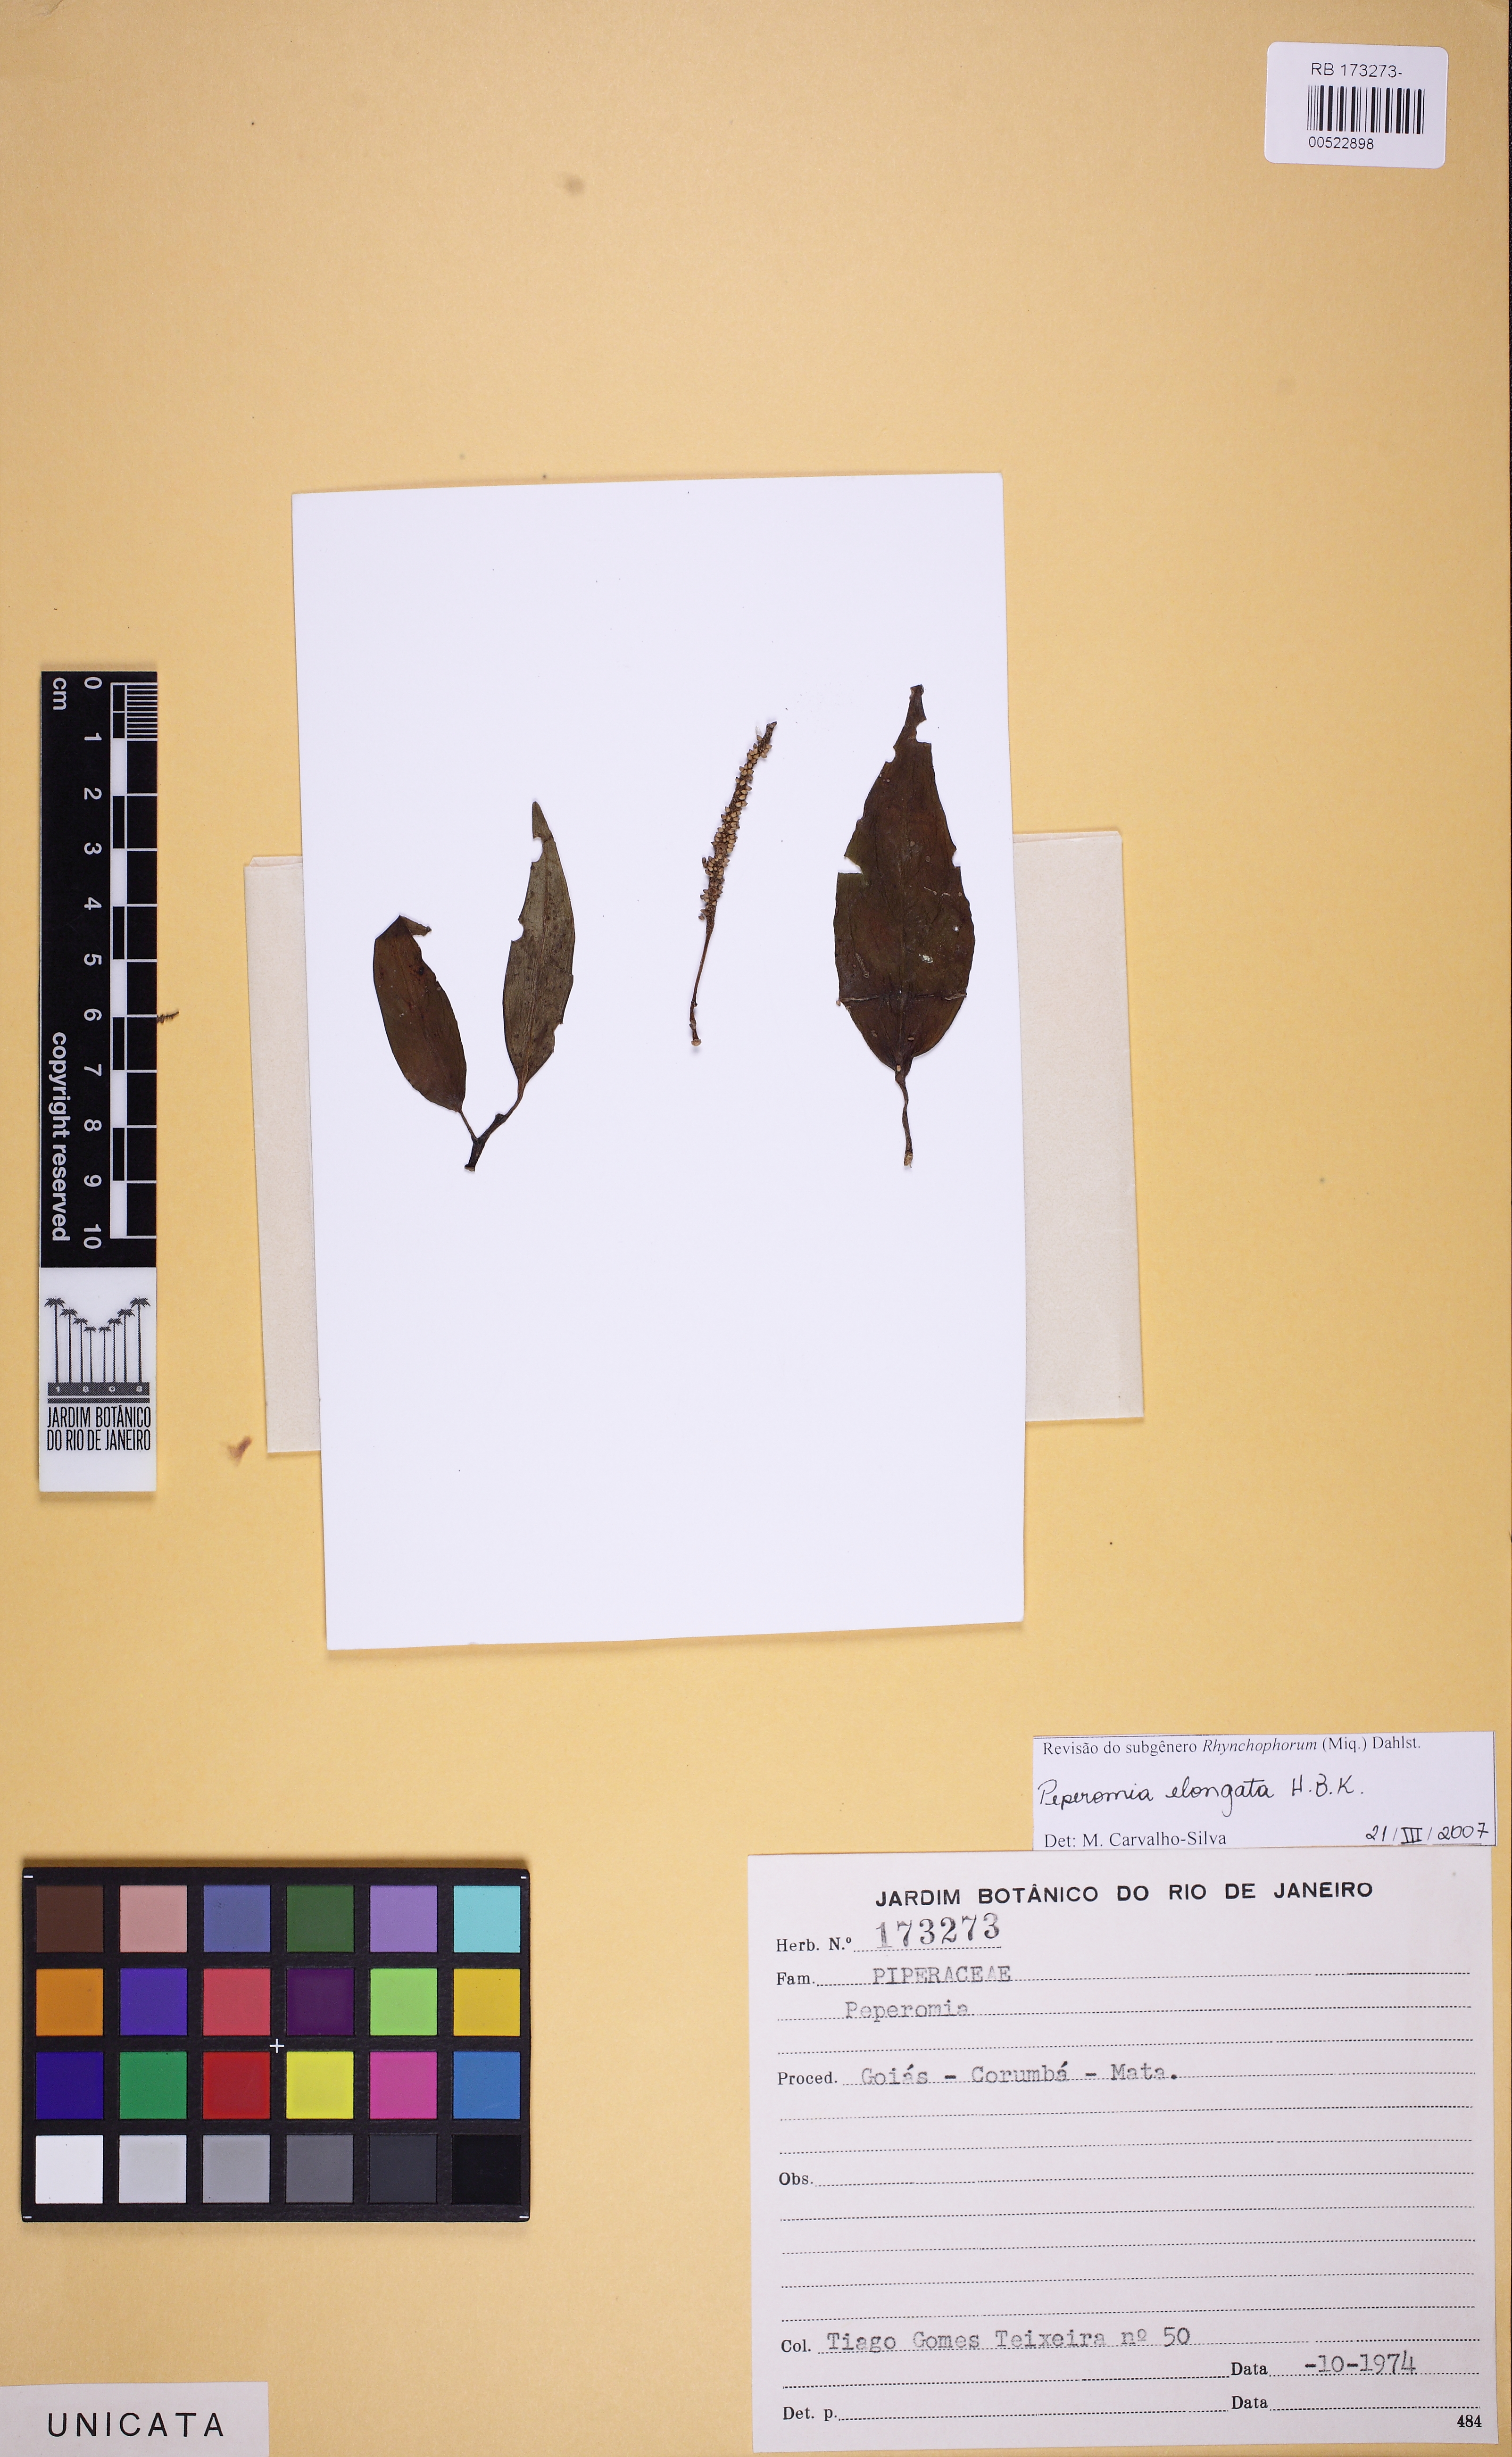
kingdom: Plantae
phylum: Tracheophyta
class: Magnoliopsida
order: Piperales
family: Piperaceae
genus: Peperomia
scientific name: Peperomia elongata
